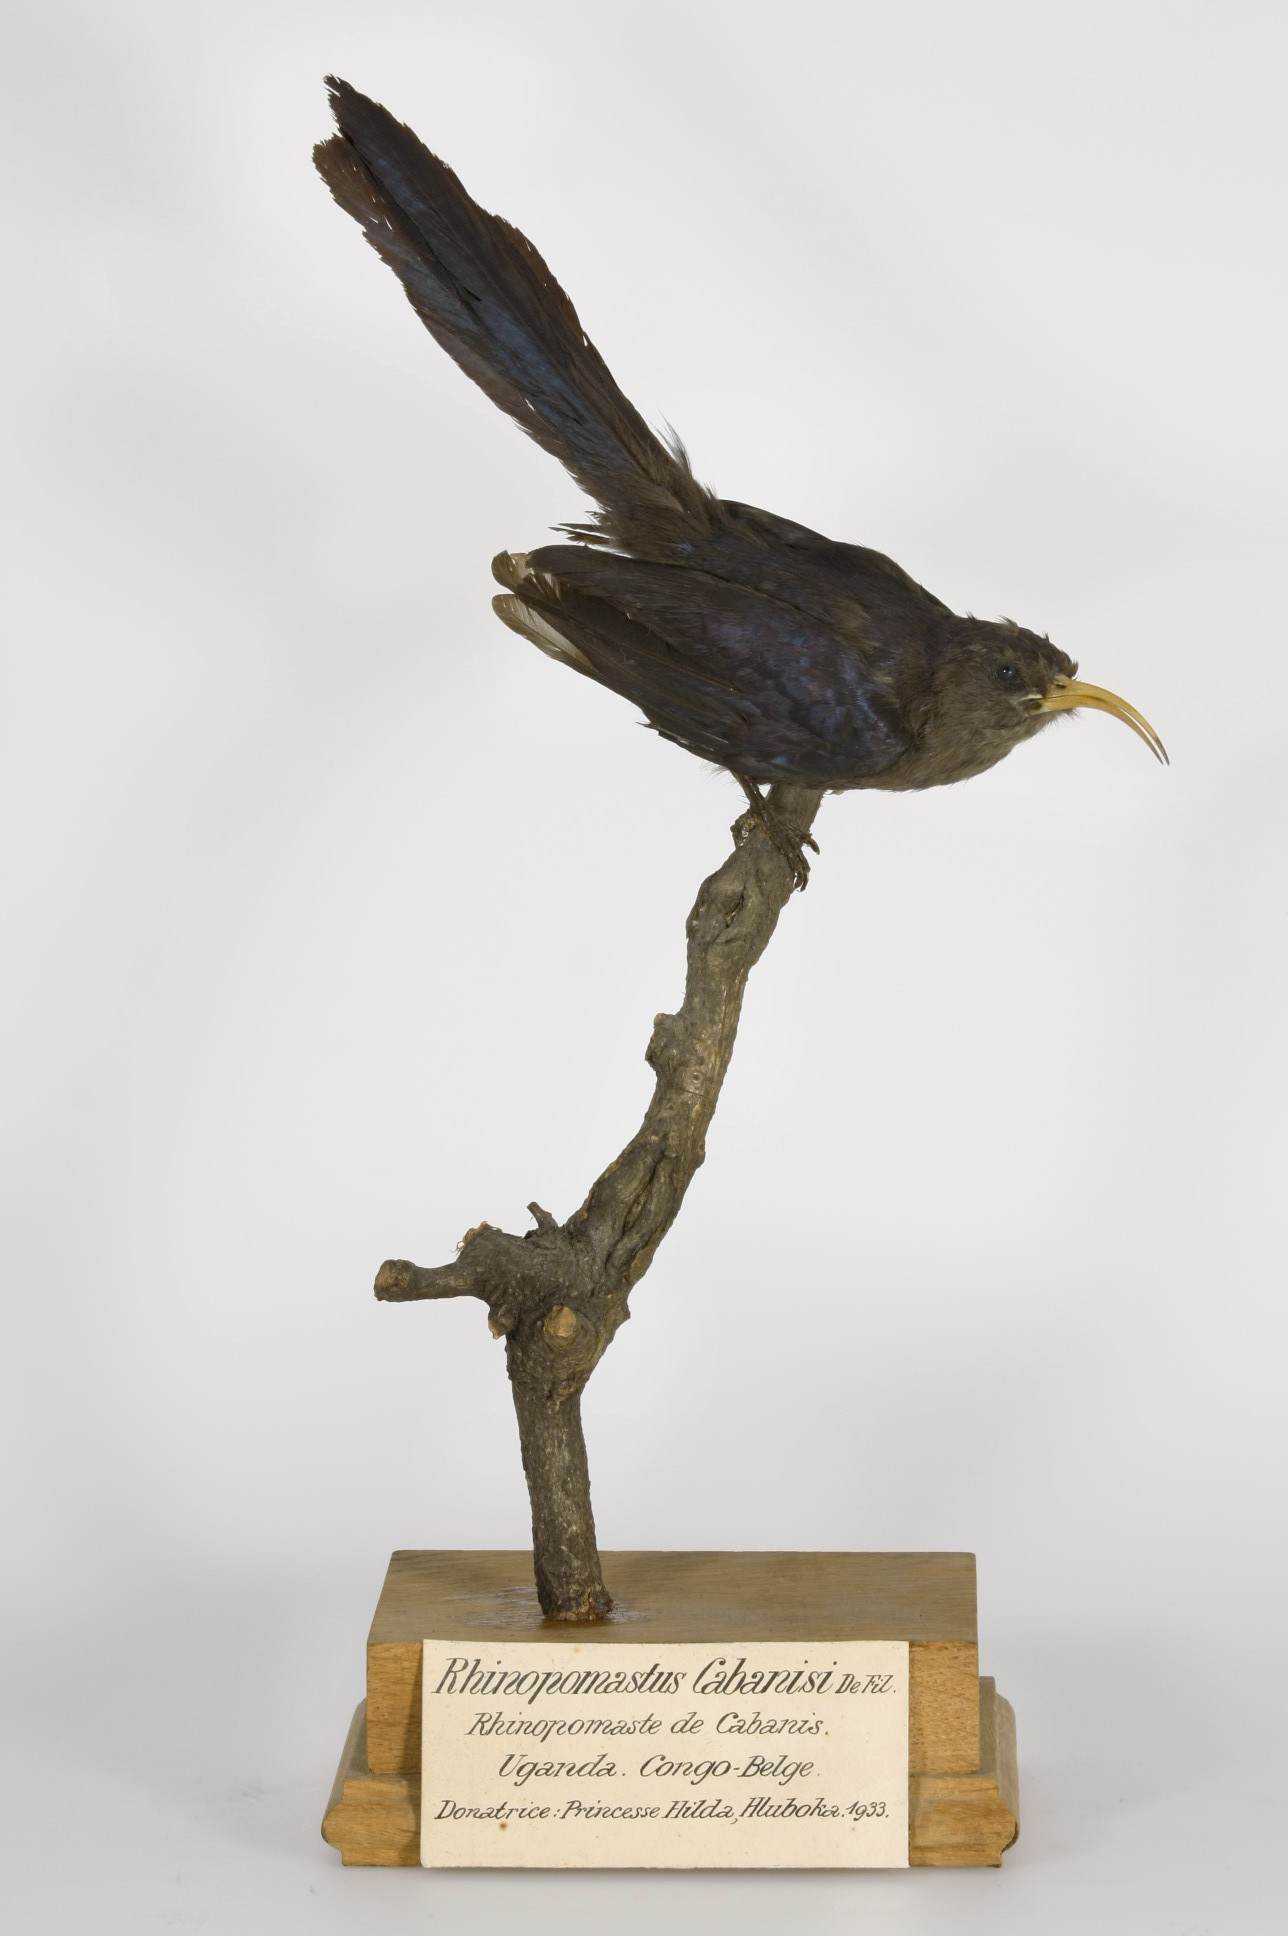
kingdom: Animalia
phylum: Chordata
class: Aves
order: Bucerotiformes
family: Phoeniculidae
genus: Rhinopomastus
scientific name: Rhinopomastus minor
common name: Abyssinian scimitarbill
